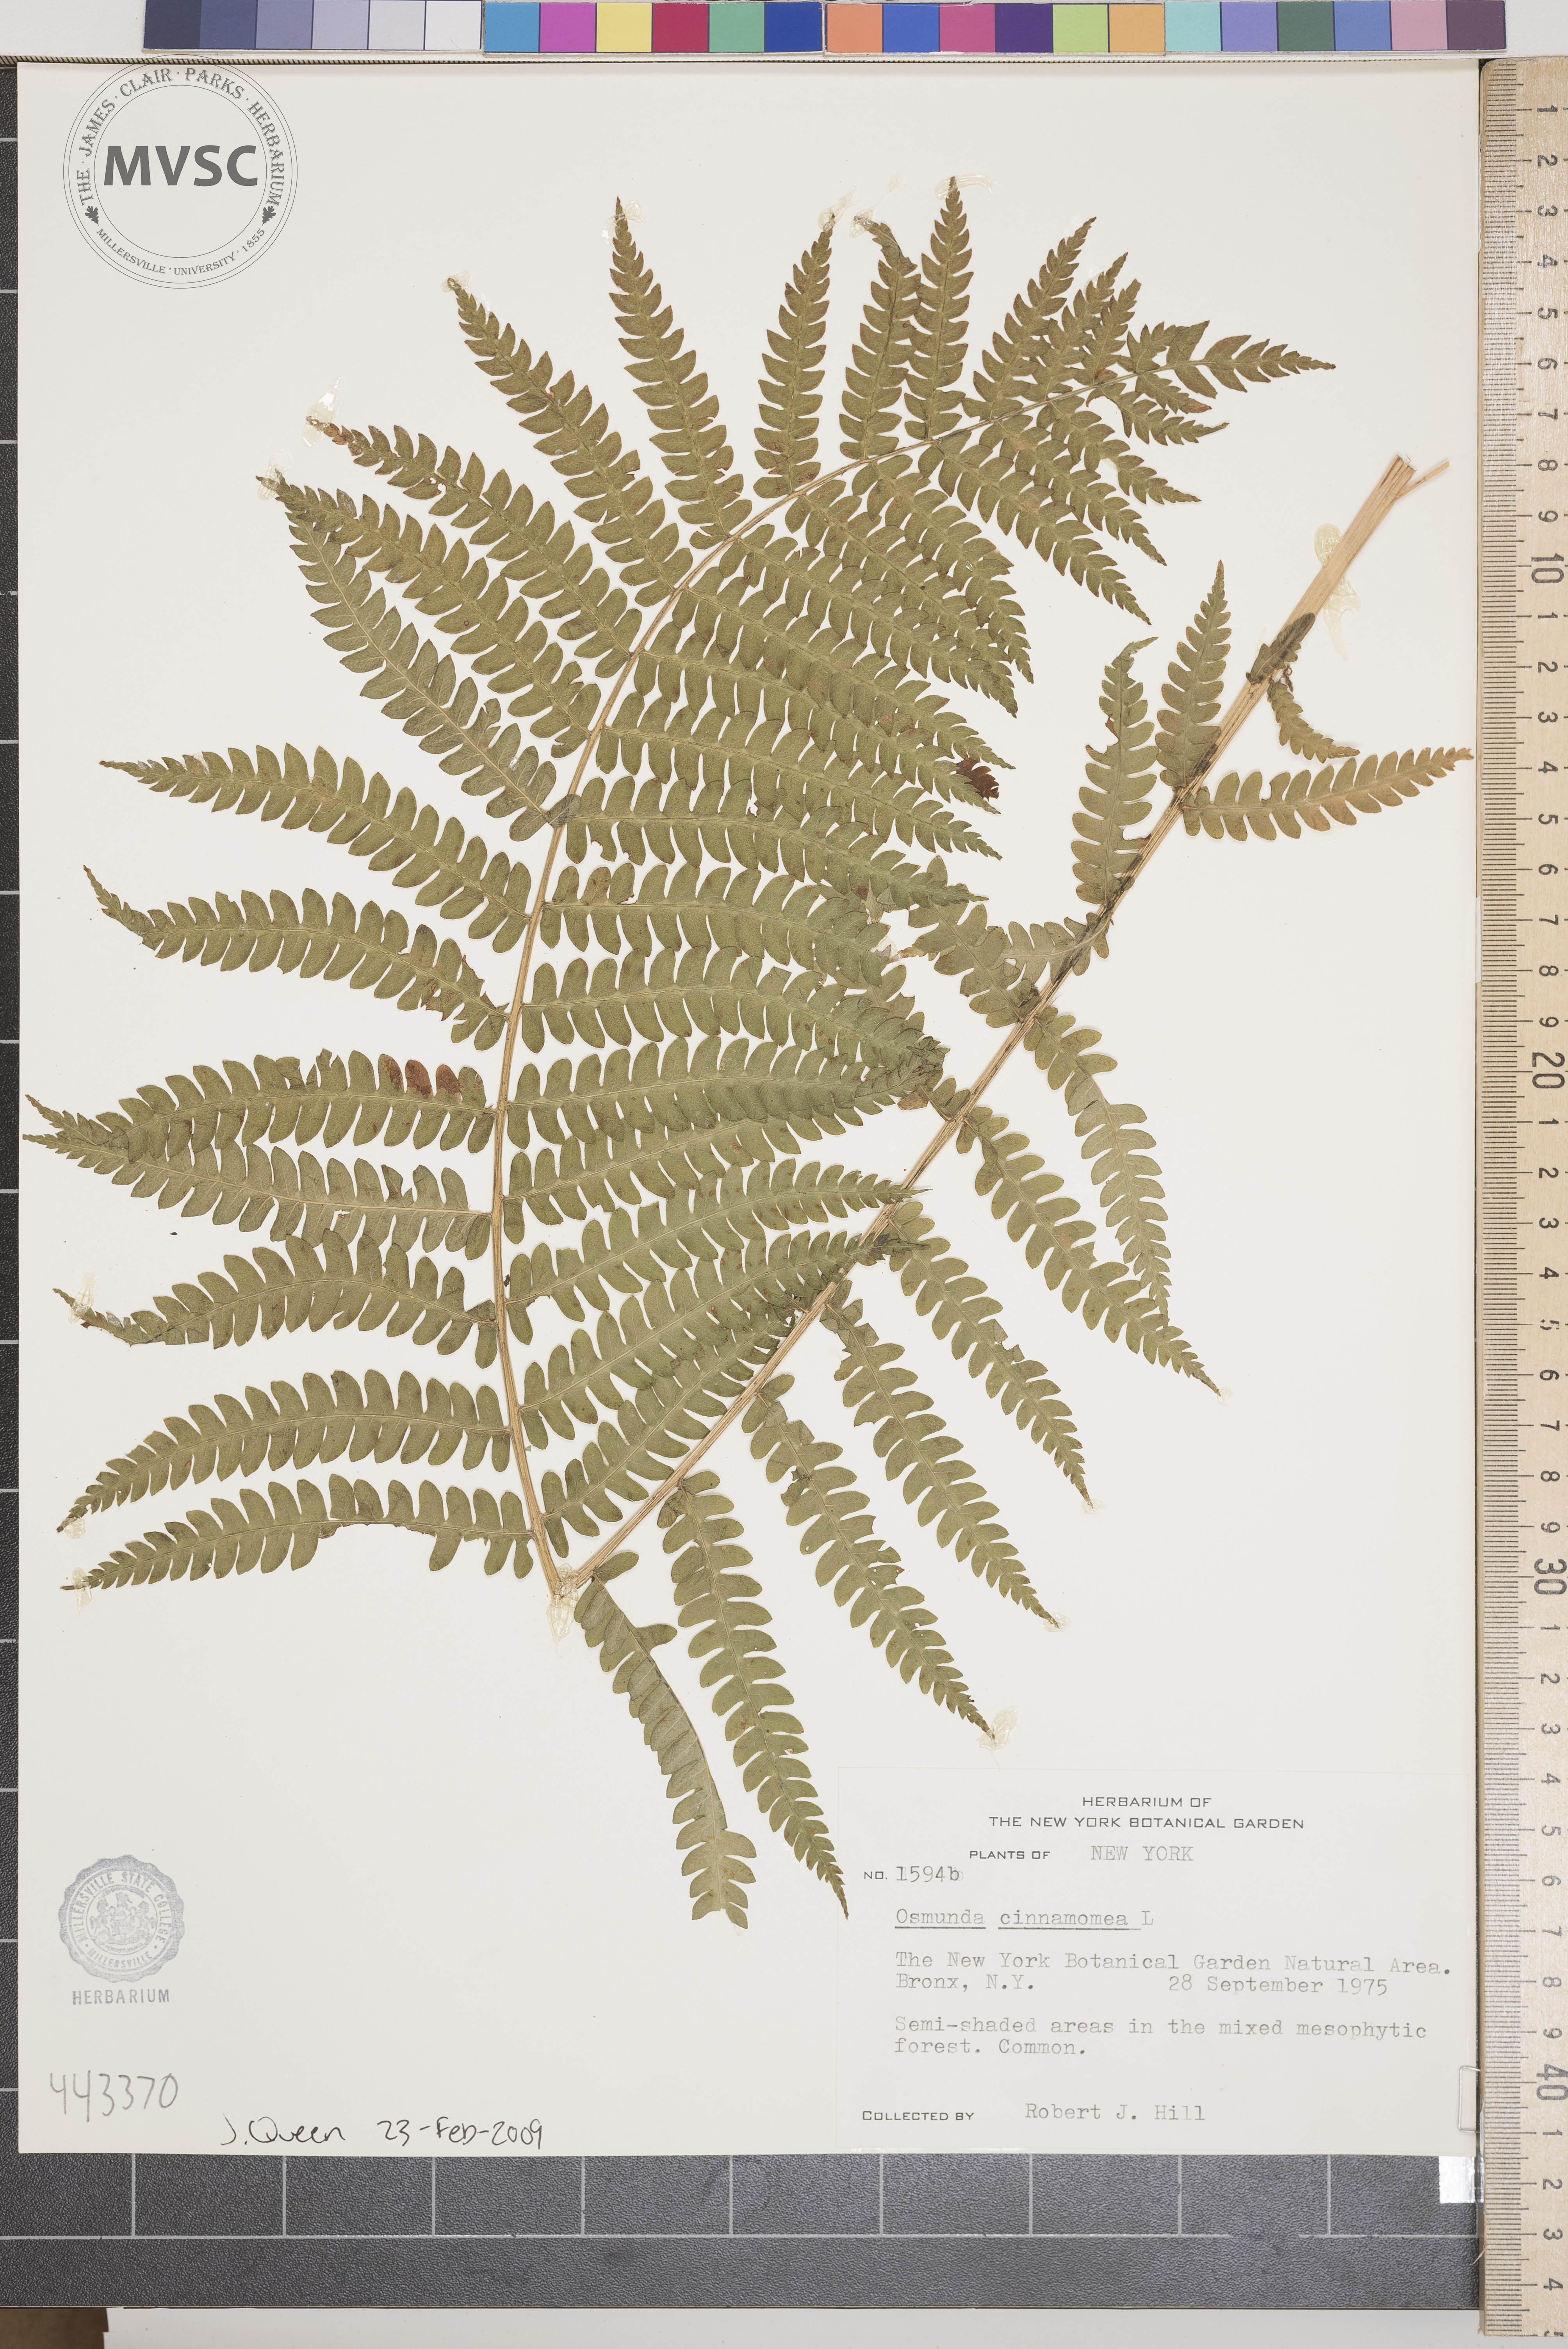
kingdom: Plantae
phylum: Tracheophyta
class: Polypodiopsida
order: Osmundales
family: Osmundaceae
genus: Osmundastrum
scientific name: Osmundastrum cinnamomeum
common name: Cinnamon fern
